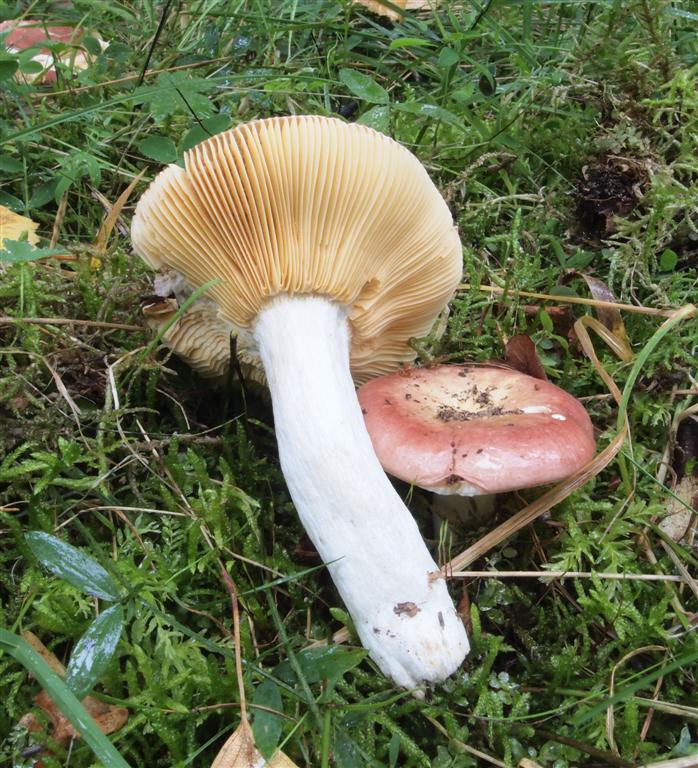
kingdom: Fungi
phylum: Basidiomycota
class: Agaricomycetes
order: Russulales
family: Russulaceae
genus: Russula
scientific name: Russula
